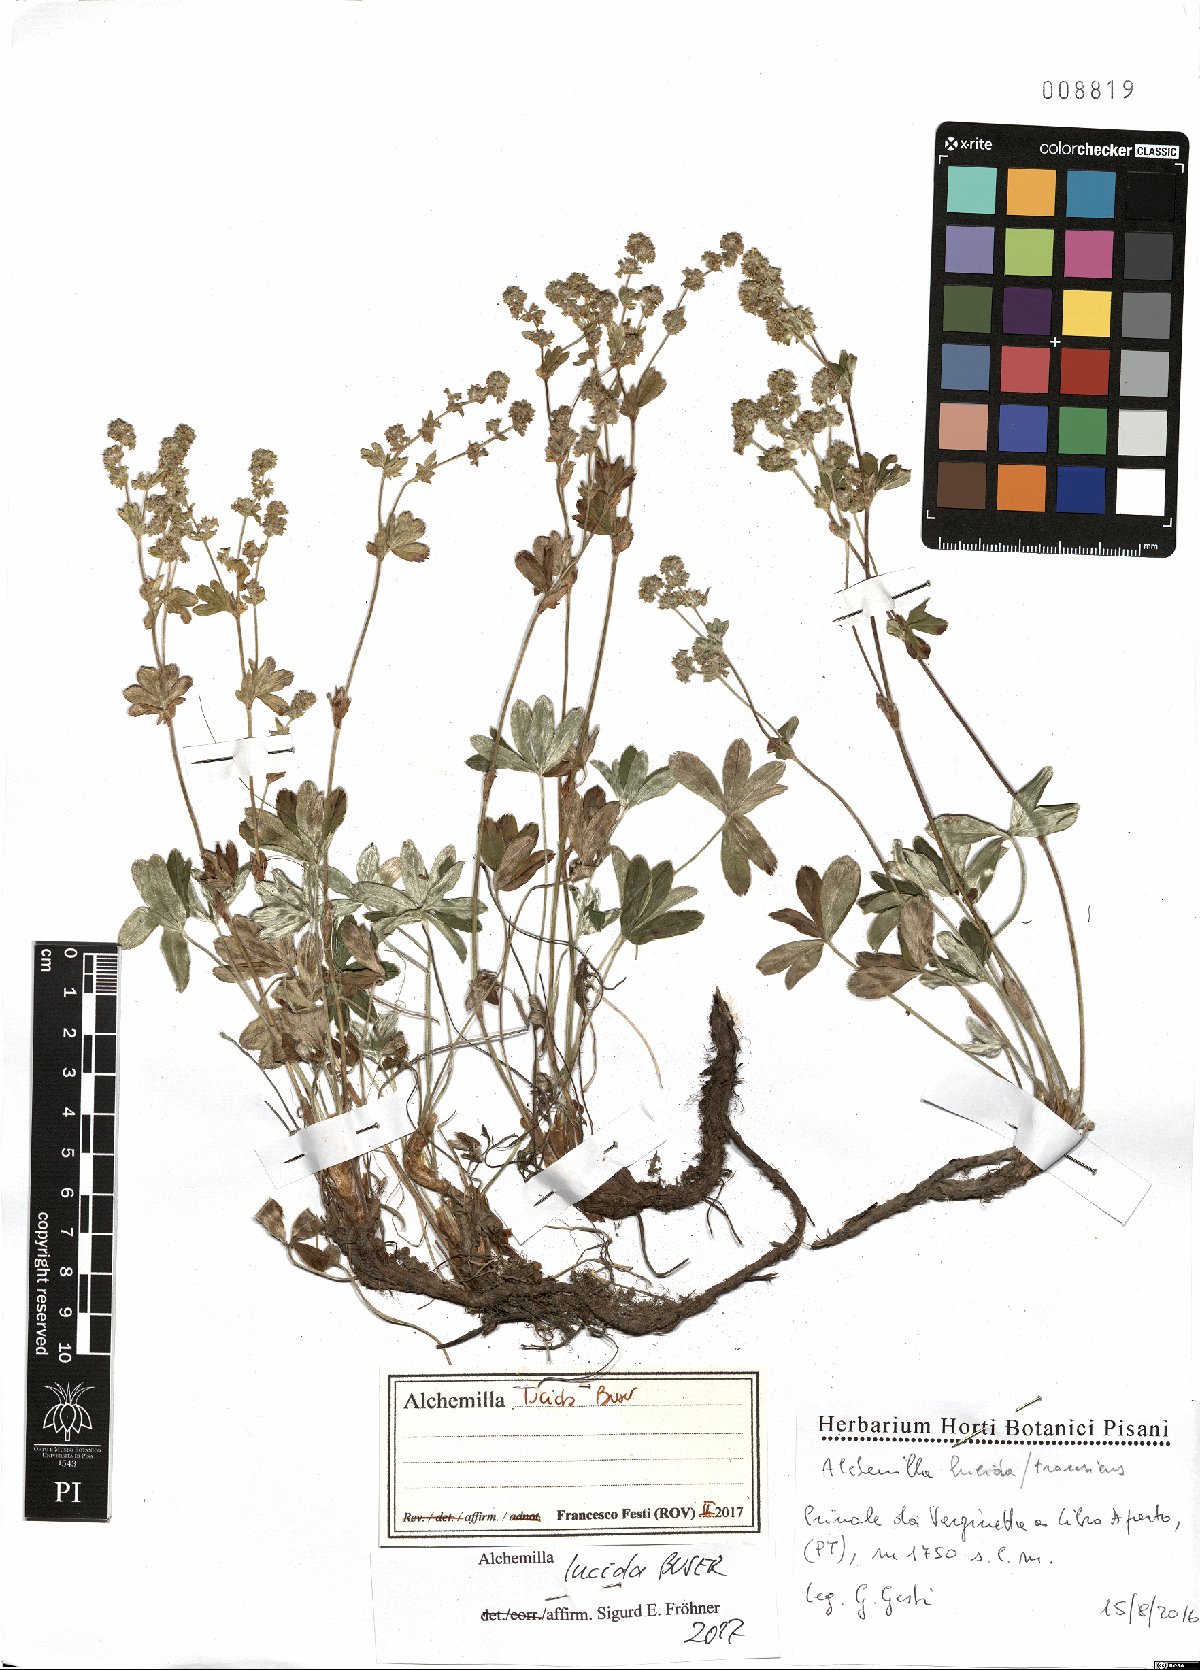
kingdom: Plantae
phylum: Tracheophyta
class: Magnoliopsida
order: Rosales
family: Rosaceae
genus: Alchemilla
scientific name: Alchemilla lucida
